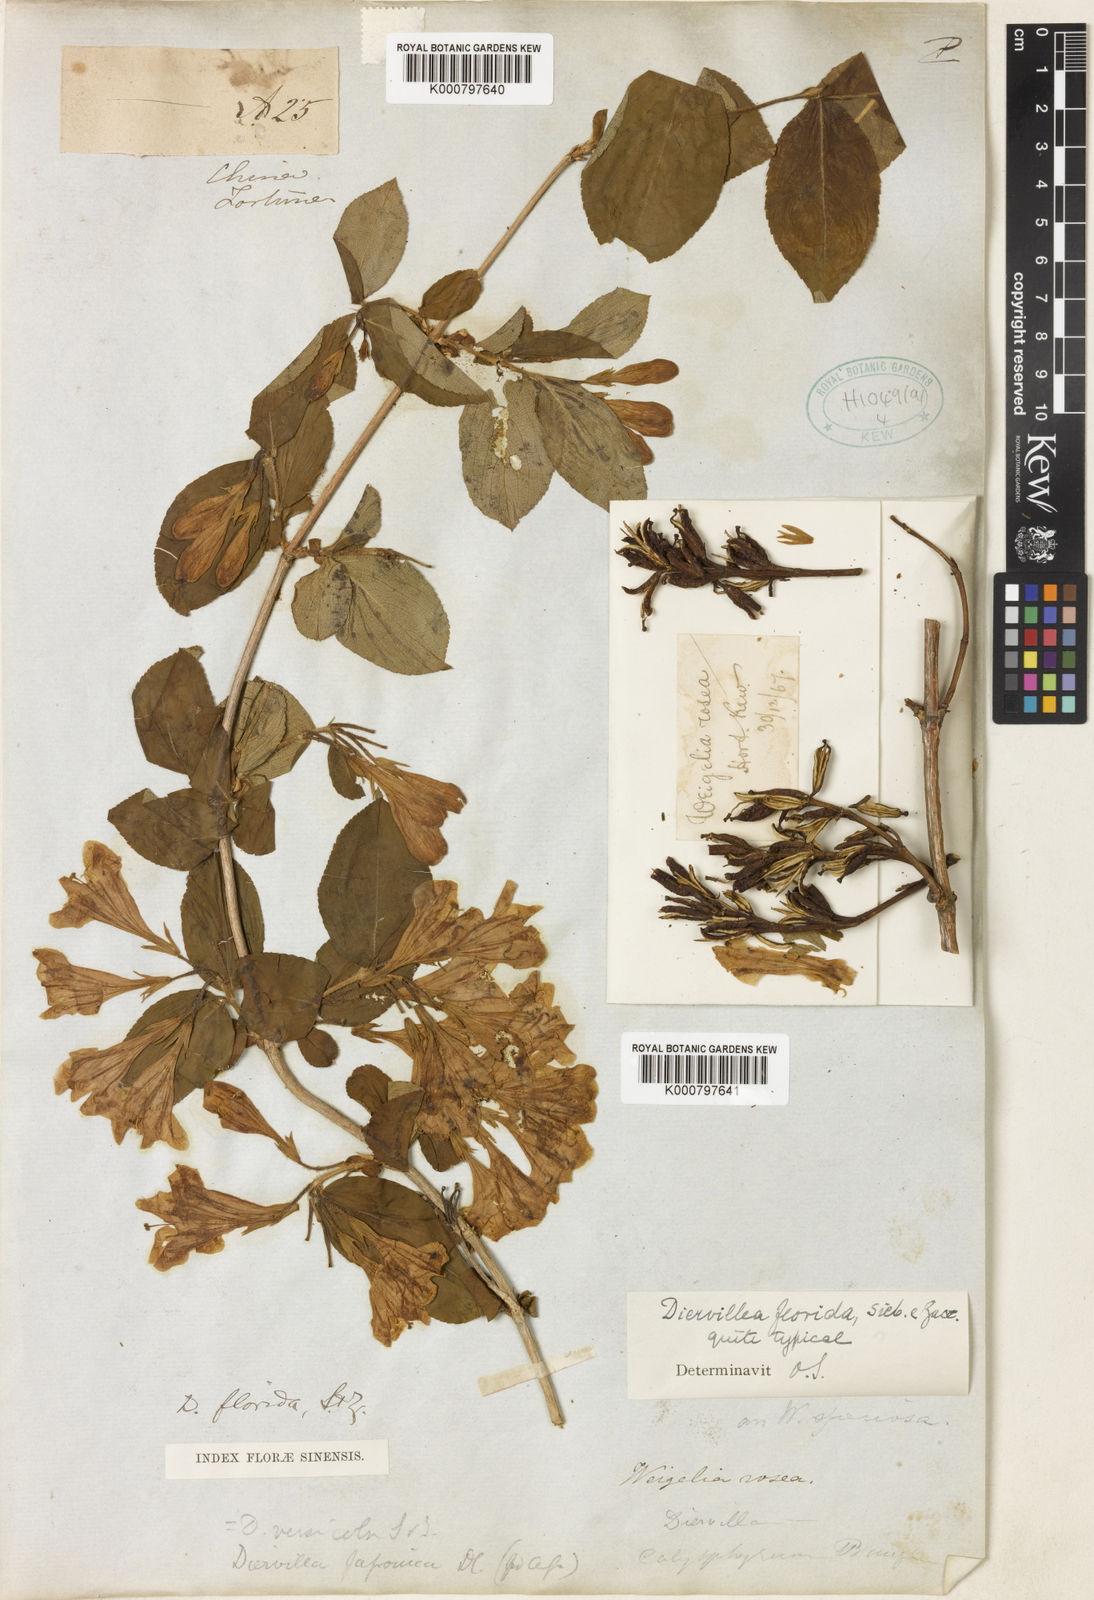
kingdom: Plantae
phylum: Tracheophyta
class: Magnoliopsida
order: Dipsacales
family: Caprifoliaceae
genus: Weigela
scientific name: Weigela florida
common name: Weigelia
